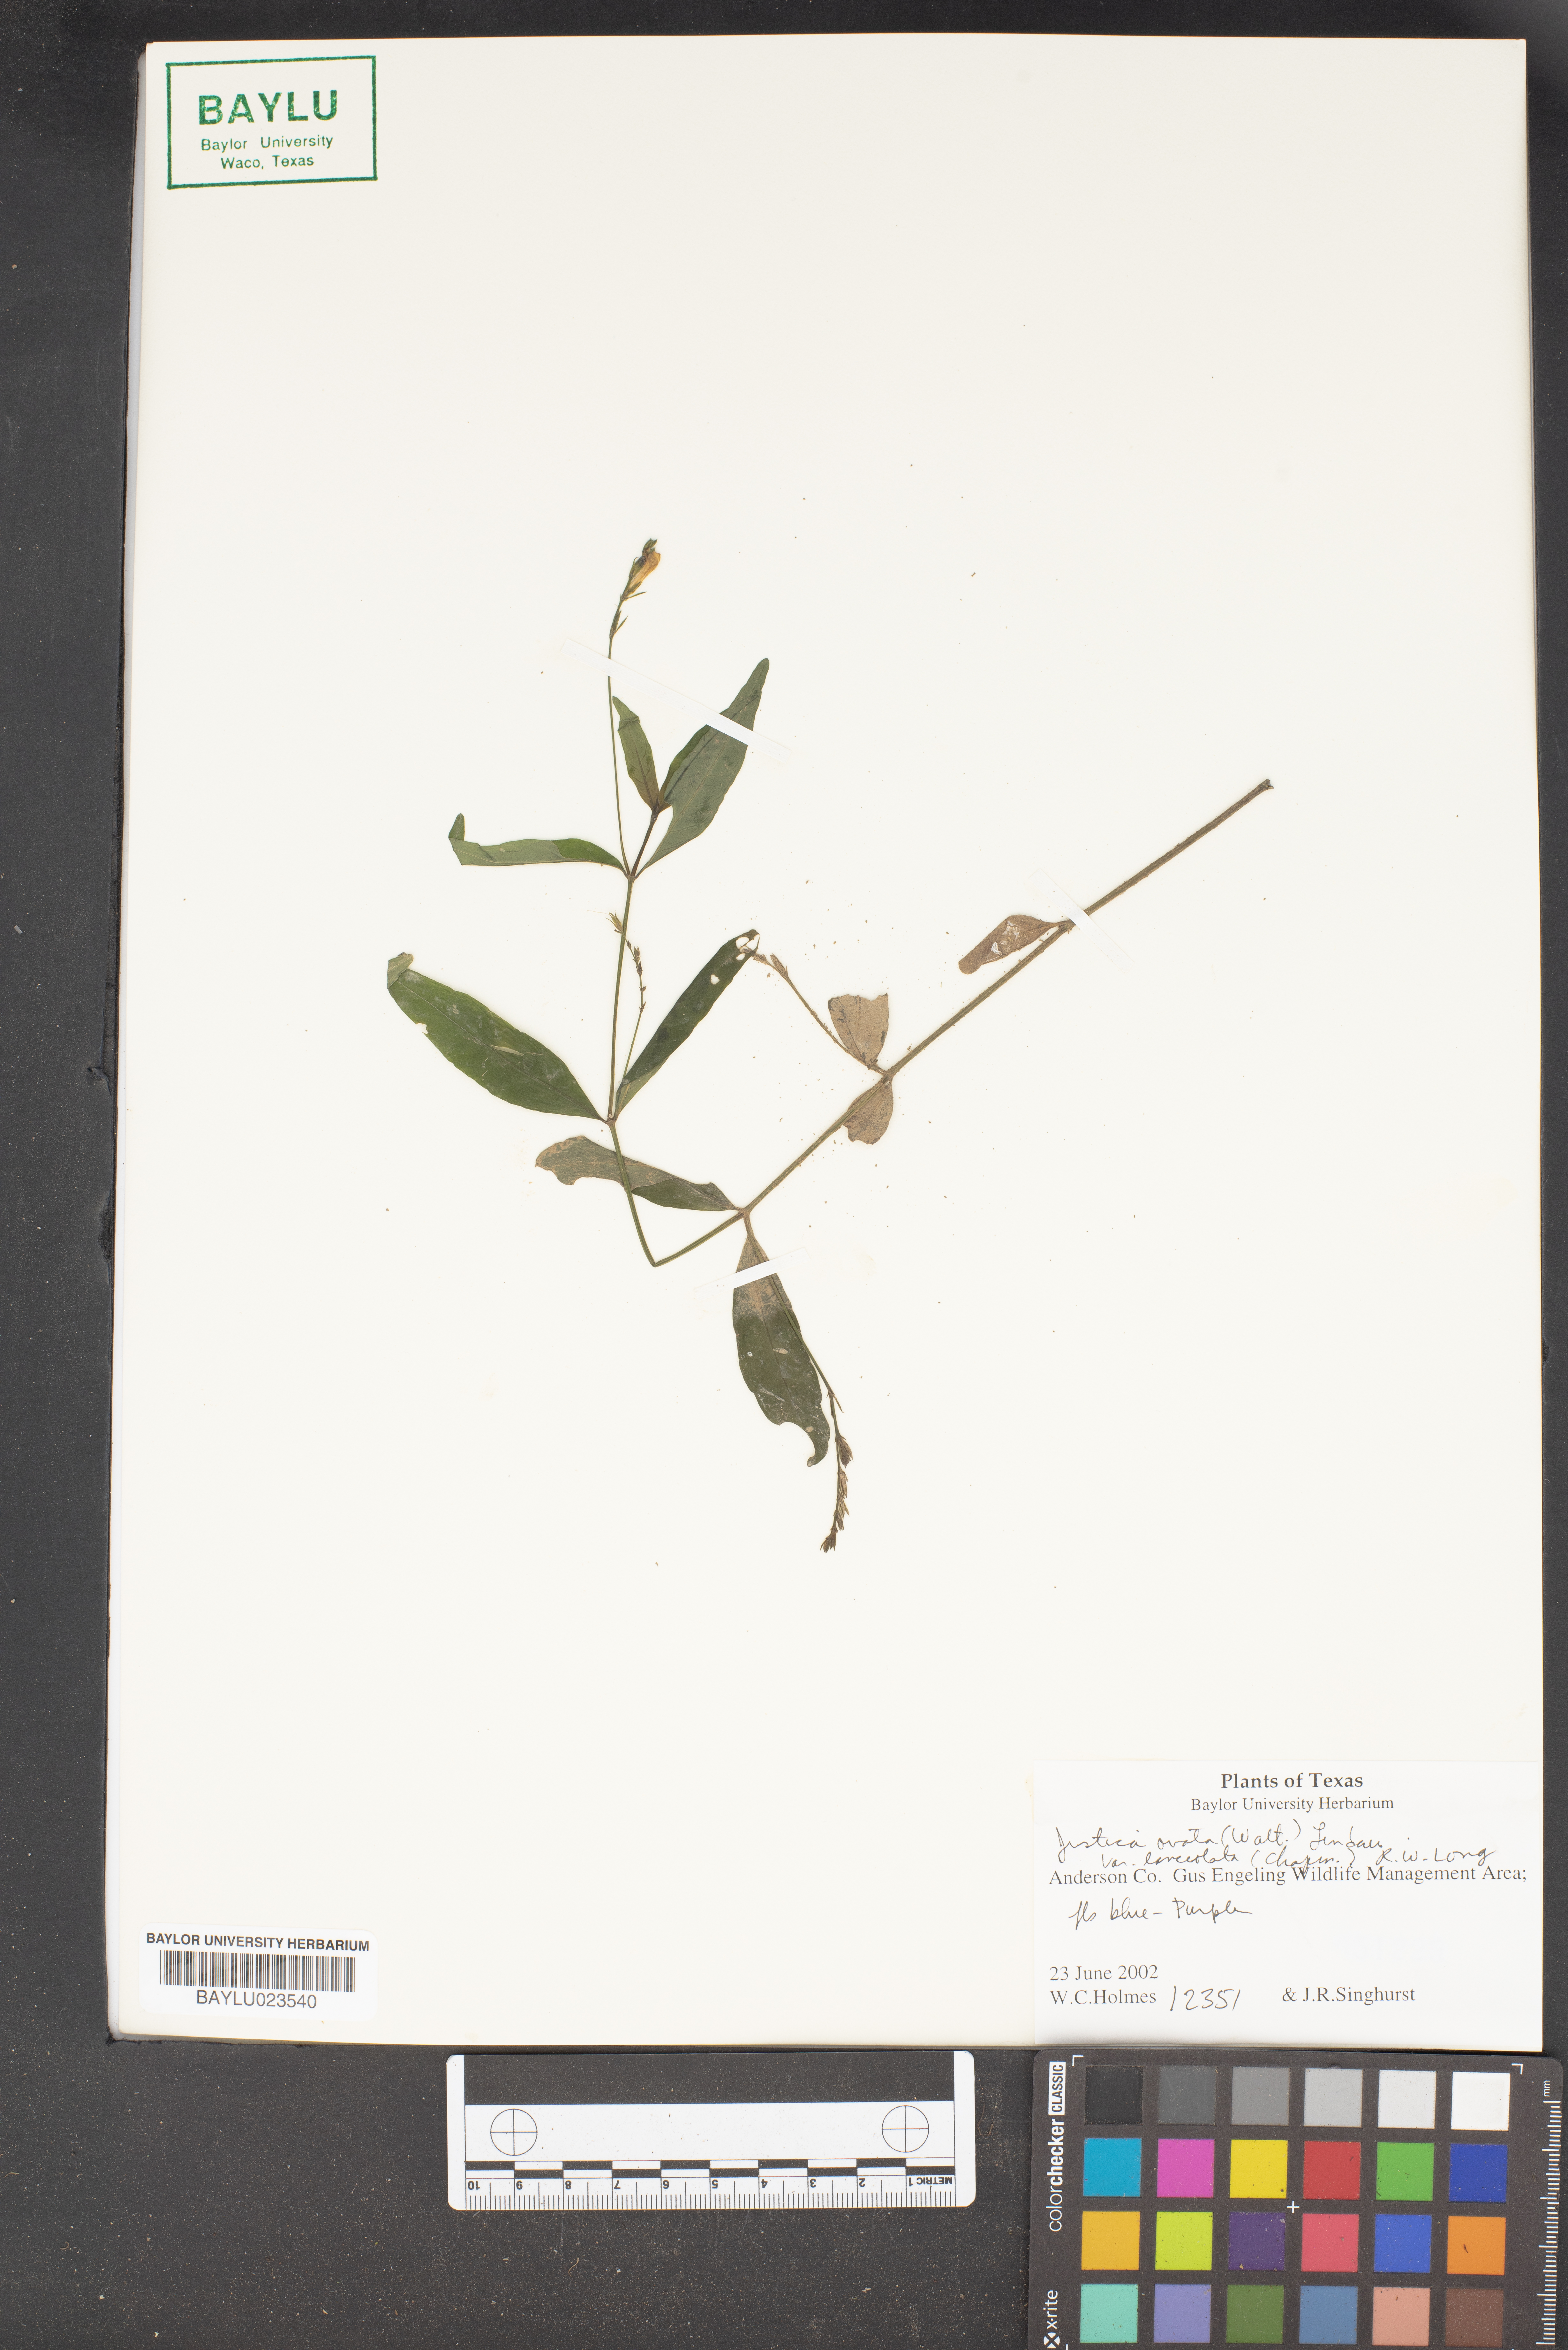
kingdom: Plantae
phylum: Tracheophyta
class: Magnoliopsida
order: Lamiales
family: Acanthaceae
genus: Justicia
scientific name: Justicia lanceolata
